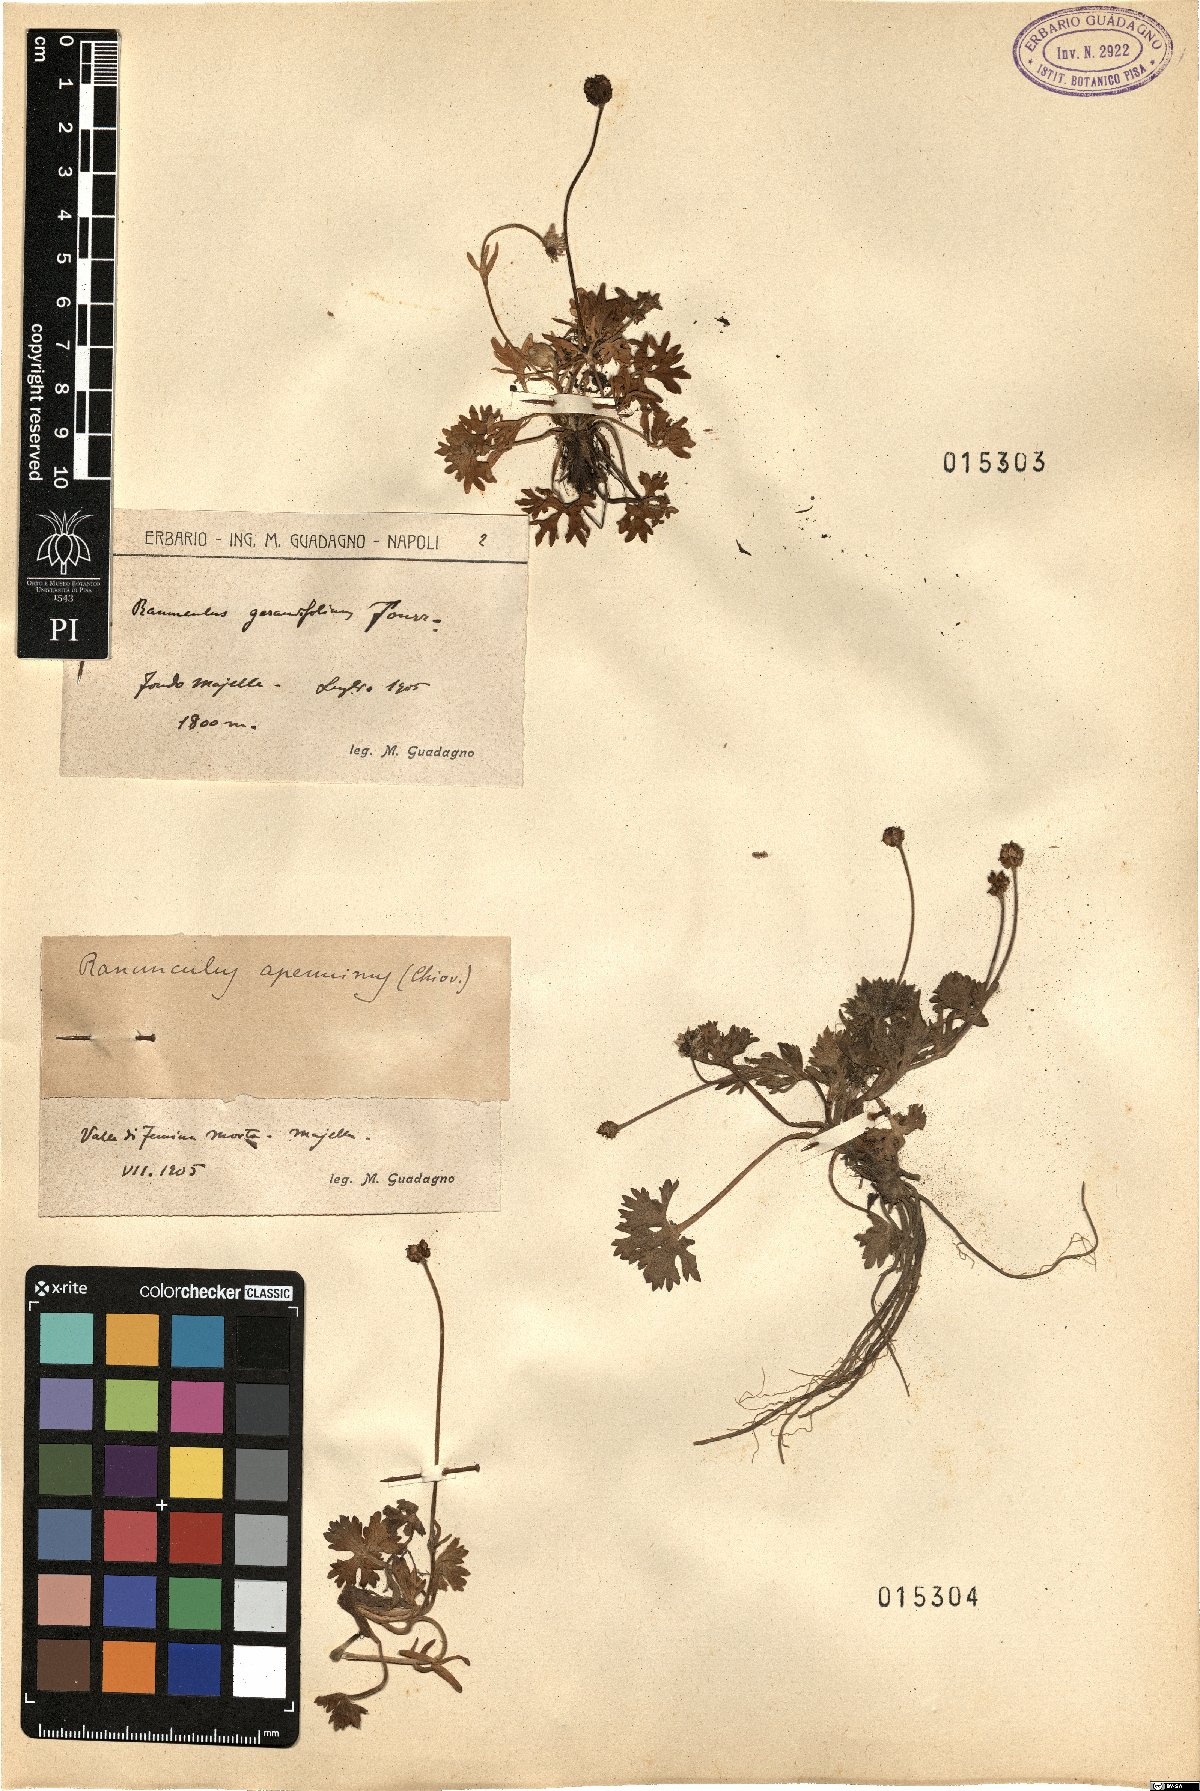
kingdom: Plantae
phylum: Tracheophyta
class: Magnoliopsida
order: Ranunculales
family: Ranunculaceae
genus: Ranunculus
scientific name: Ranunculus apenninus
